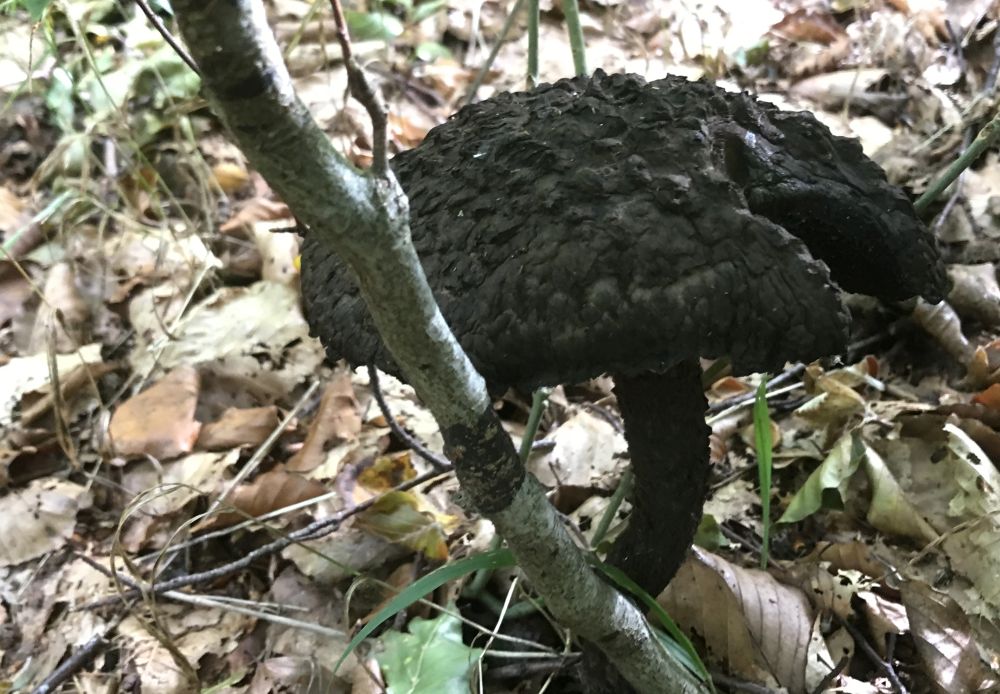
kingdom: Fungi
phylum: Basidiomycota
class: Agaricomycetes
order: Boletales
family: Boletaceae
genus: Strobilomyces
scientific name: Strobilomyces strobilaceus
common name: koglerørhat
